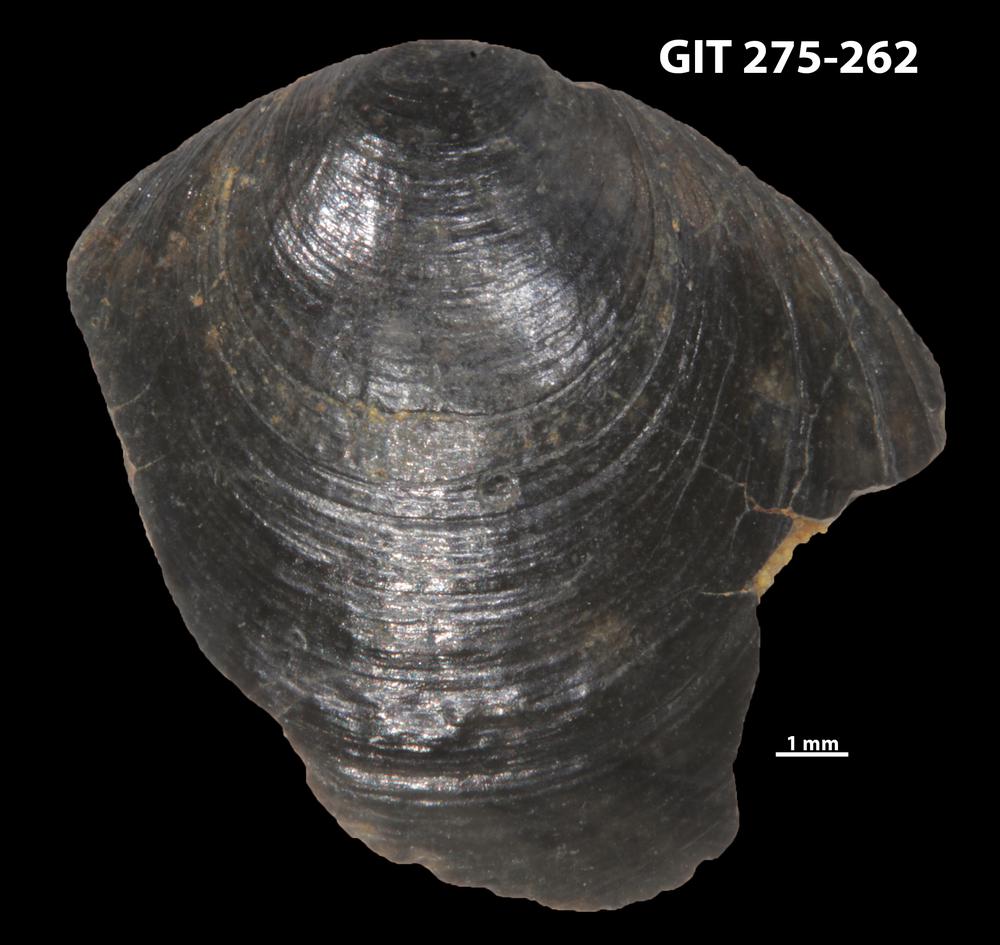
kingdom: Animalia
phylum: Porifera
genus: Ungula
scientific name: Ungula ingricus
